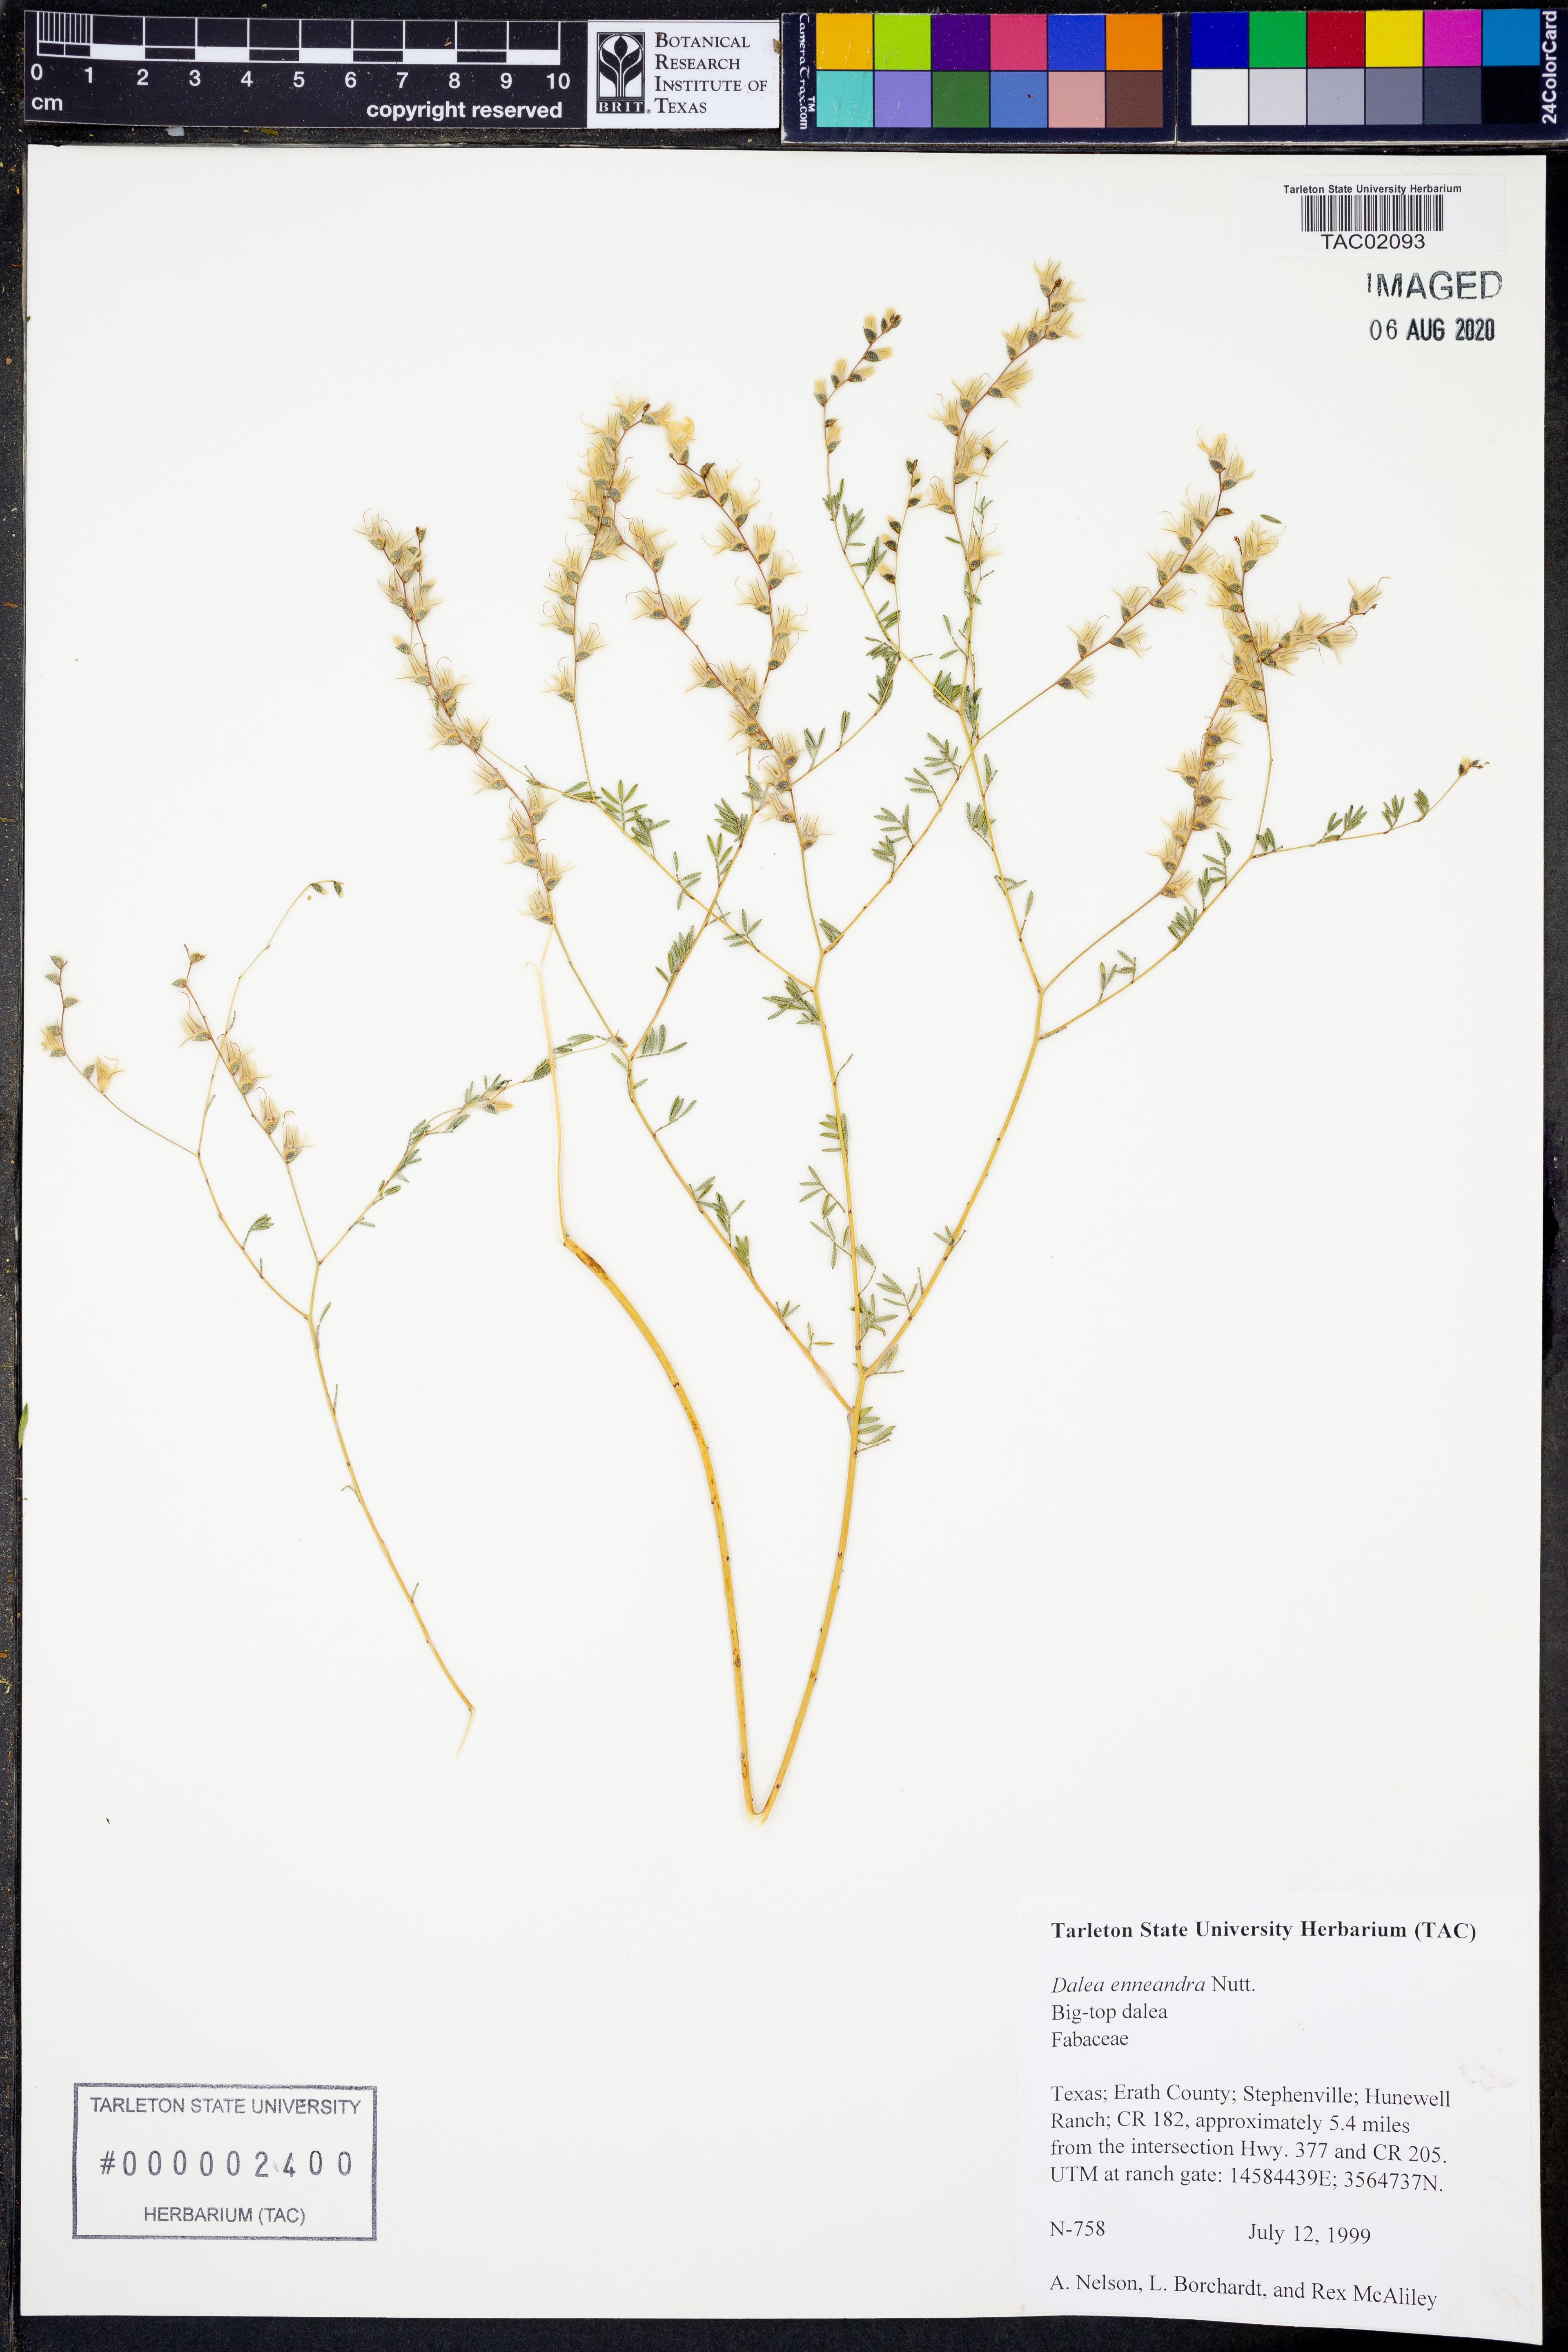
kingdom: Plantae
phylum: Tracheophyta
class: Magnoliopsida
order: Fabales
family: Fabaceae
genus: Dalea
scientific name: Dalea enneandra
